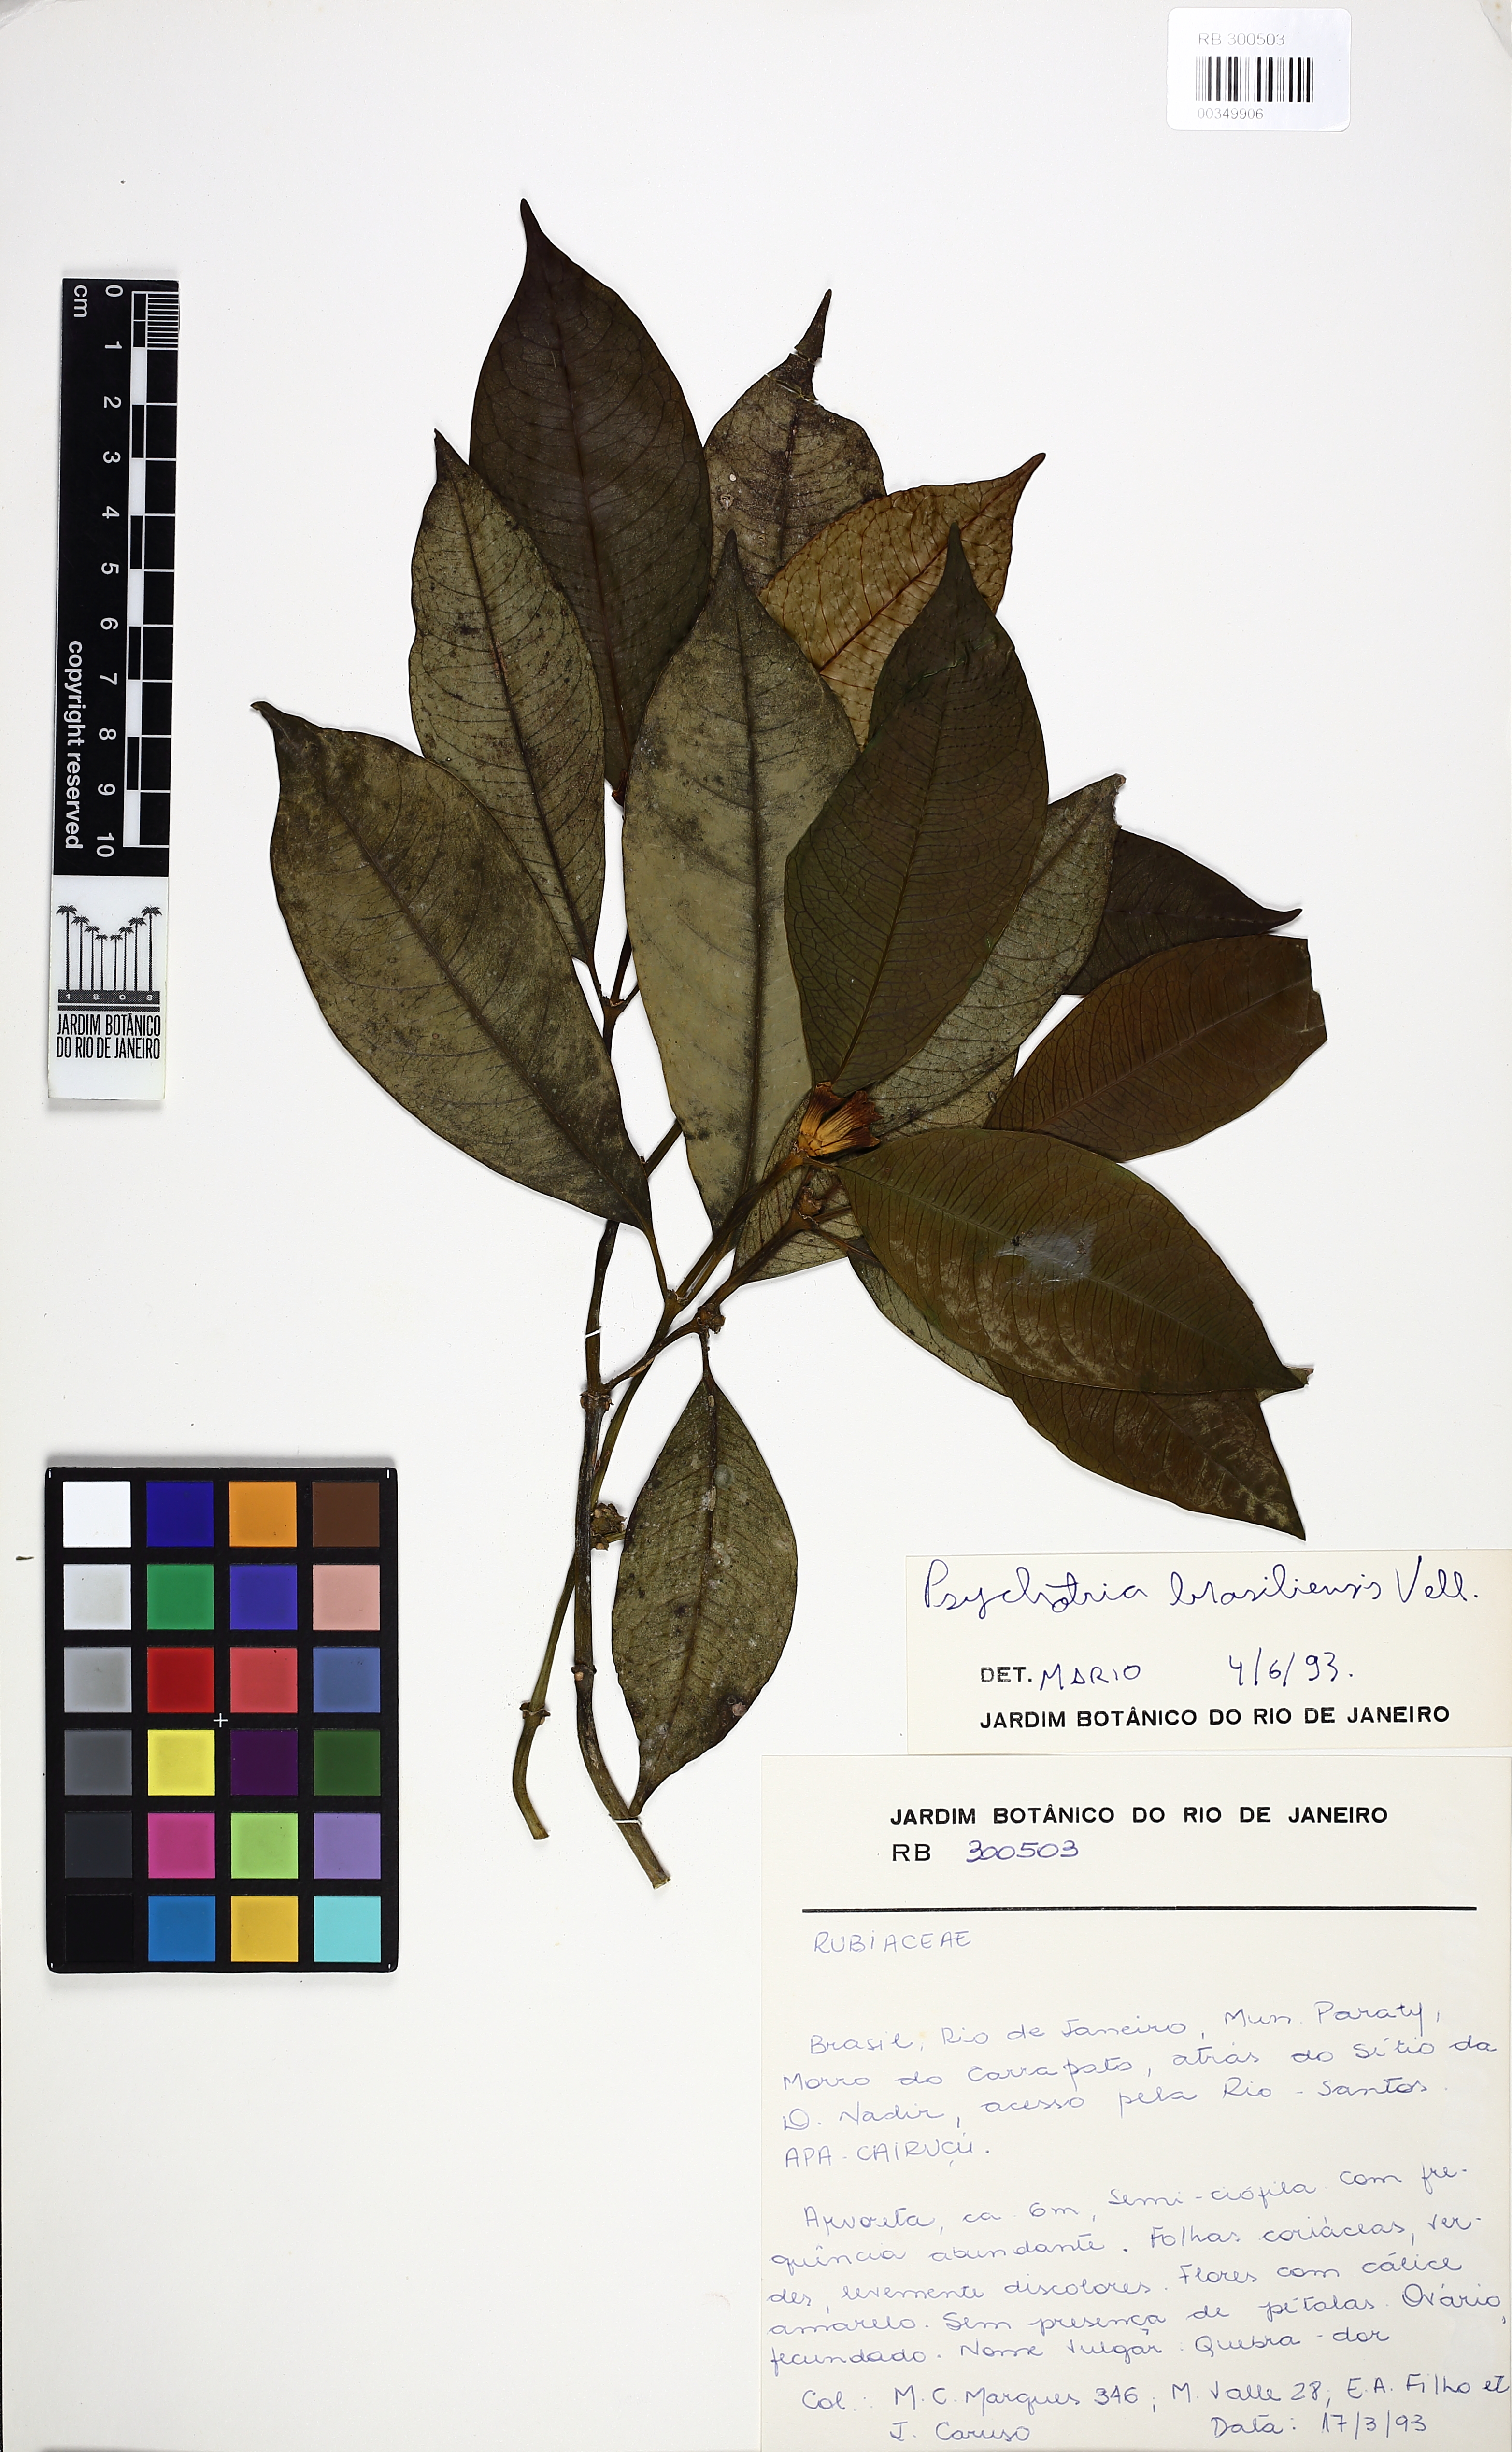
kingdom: Plantae
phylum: Tracheophyta
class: Magnoliopsida
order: Gentianales
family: Rubiaceae
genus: Psychotria
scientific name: Psychotria nuda
